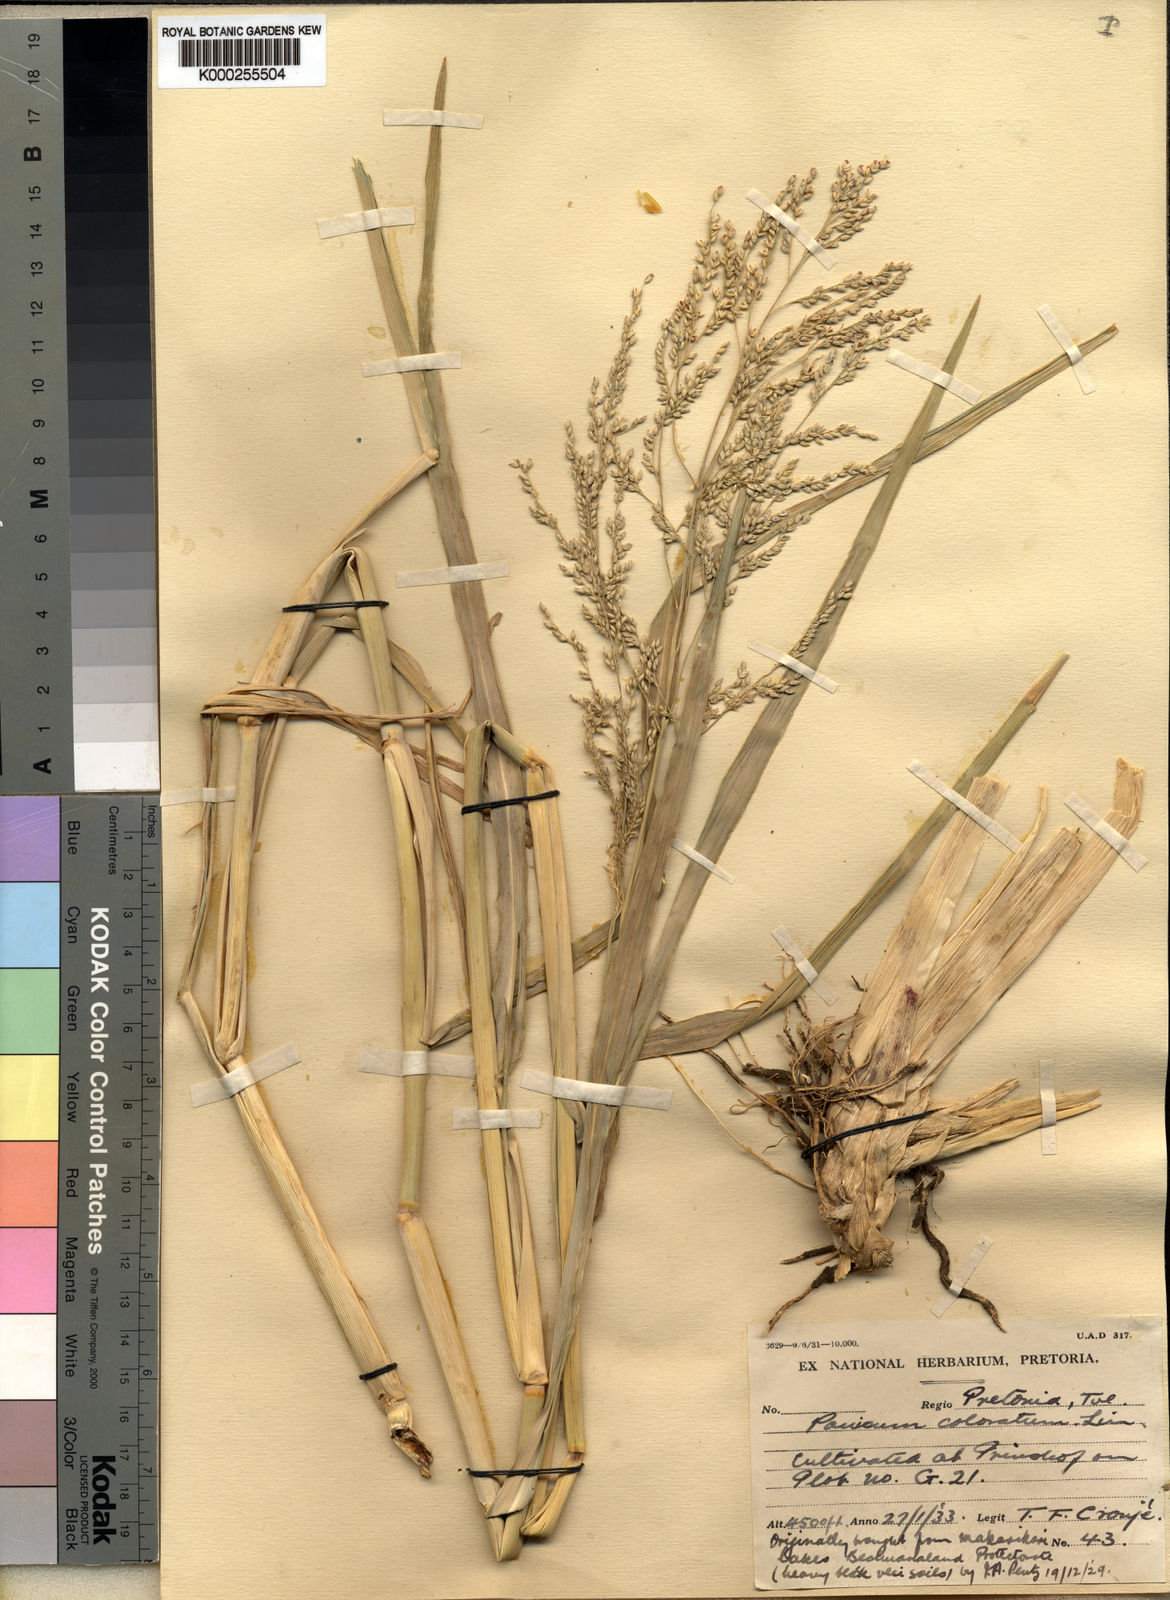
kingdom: Plantae
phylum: Tracheophyta
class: Liliopsida
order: Poales
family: Poaceae
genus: Panicum
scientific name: Panicum coloratum
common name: Kleingrass
